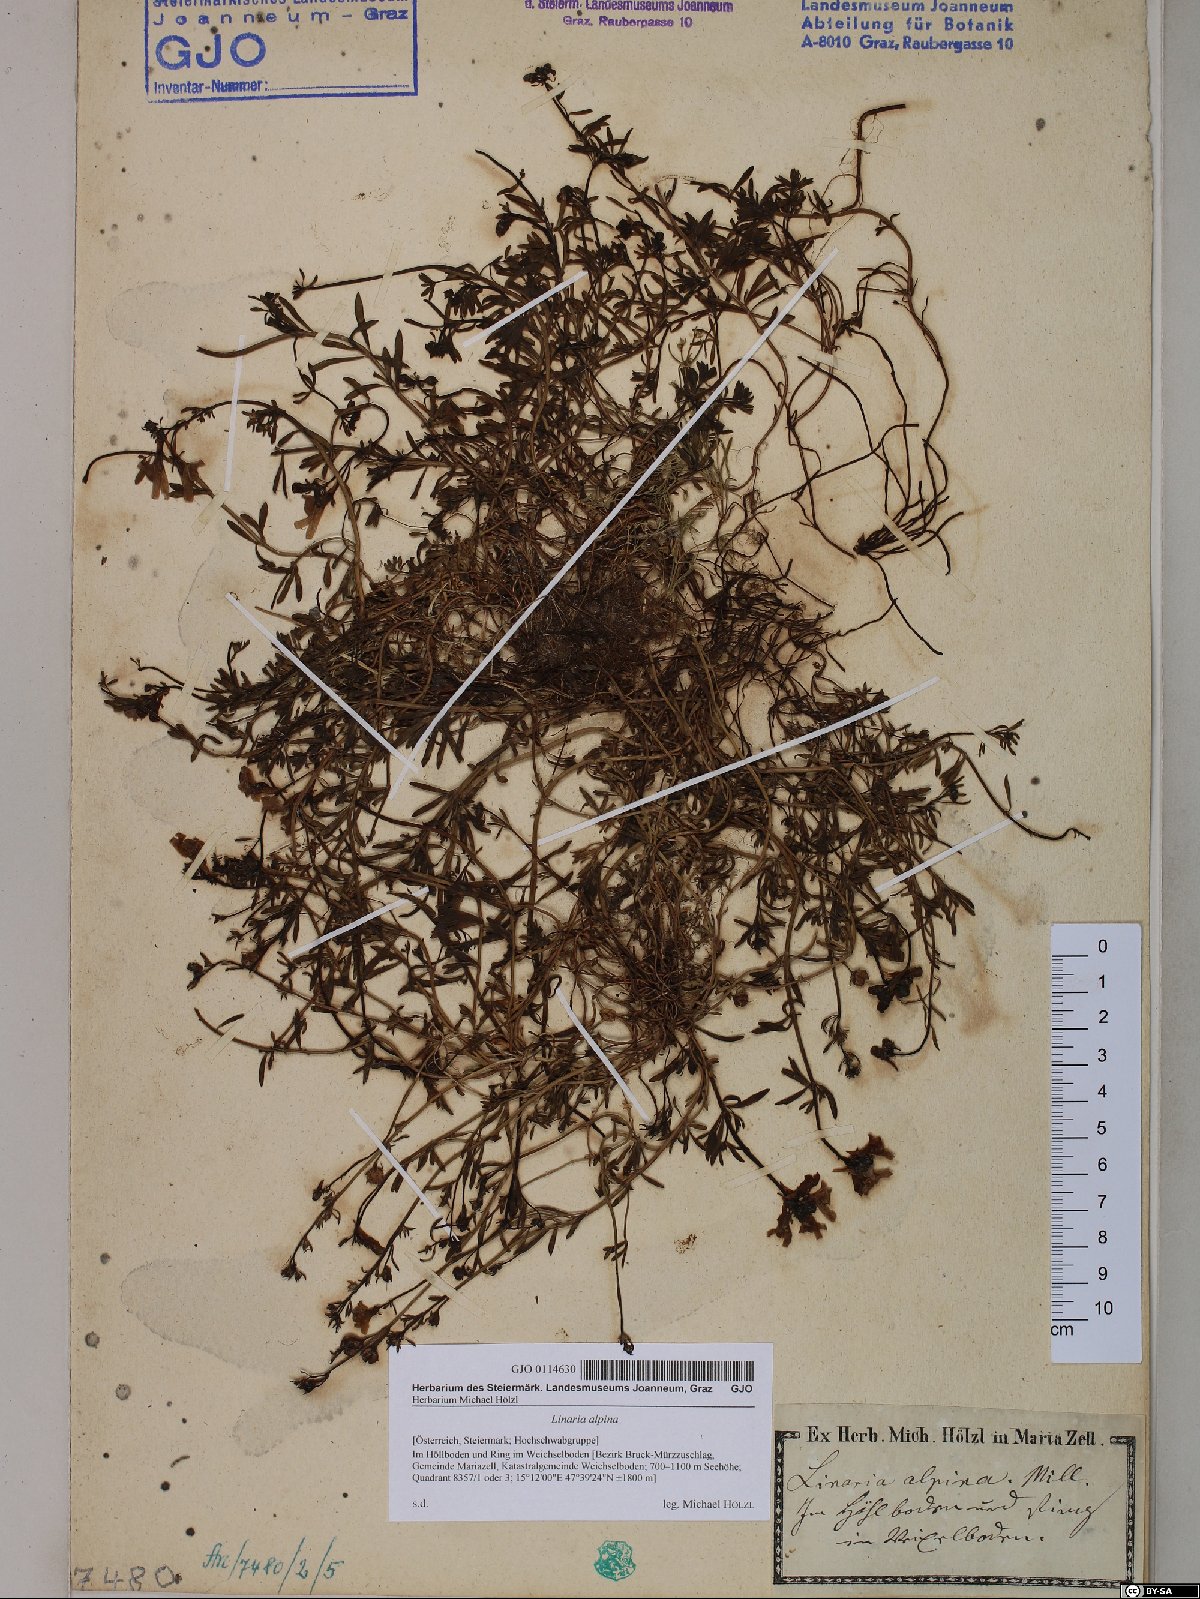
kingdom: Plantae
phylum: Tracheophyta
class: Magnoliopsida
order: Lamiales
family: Plantaginaceae
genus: Linaria
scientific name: Linaria alpina
